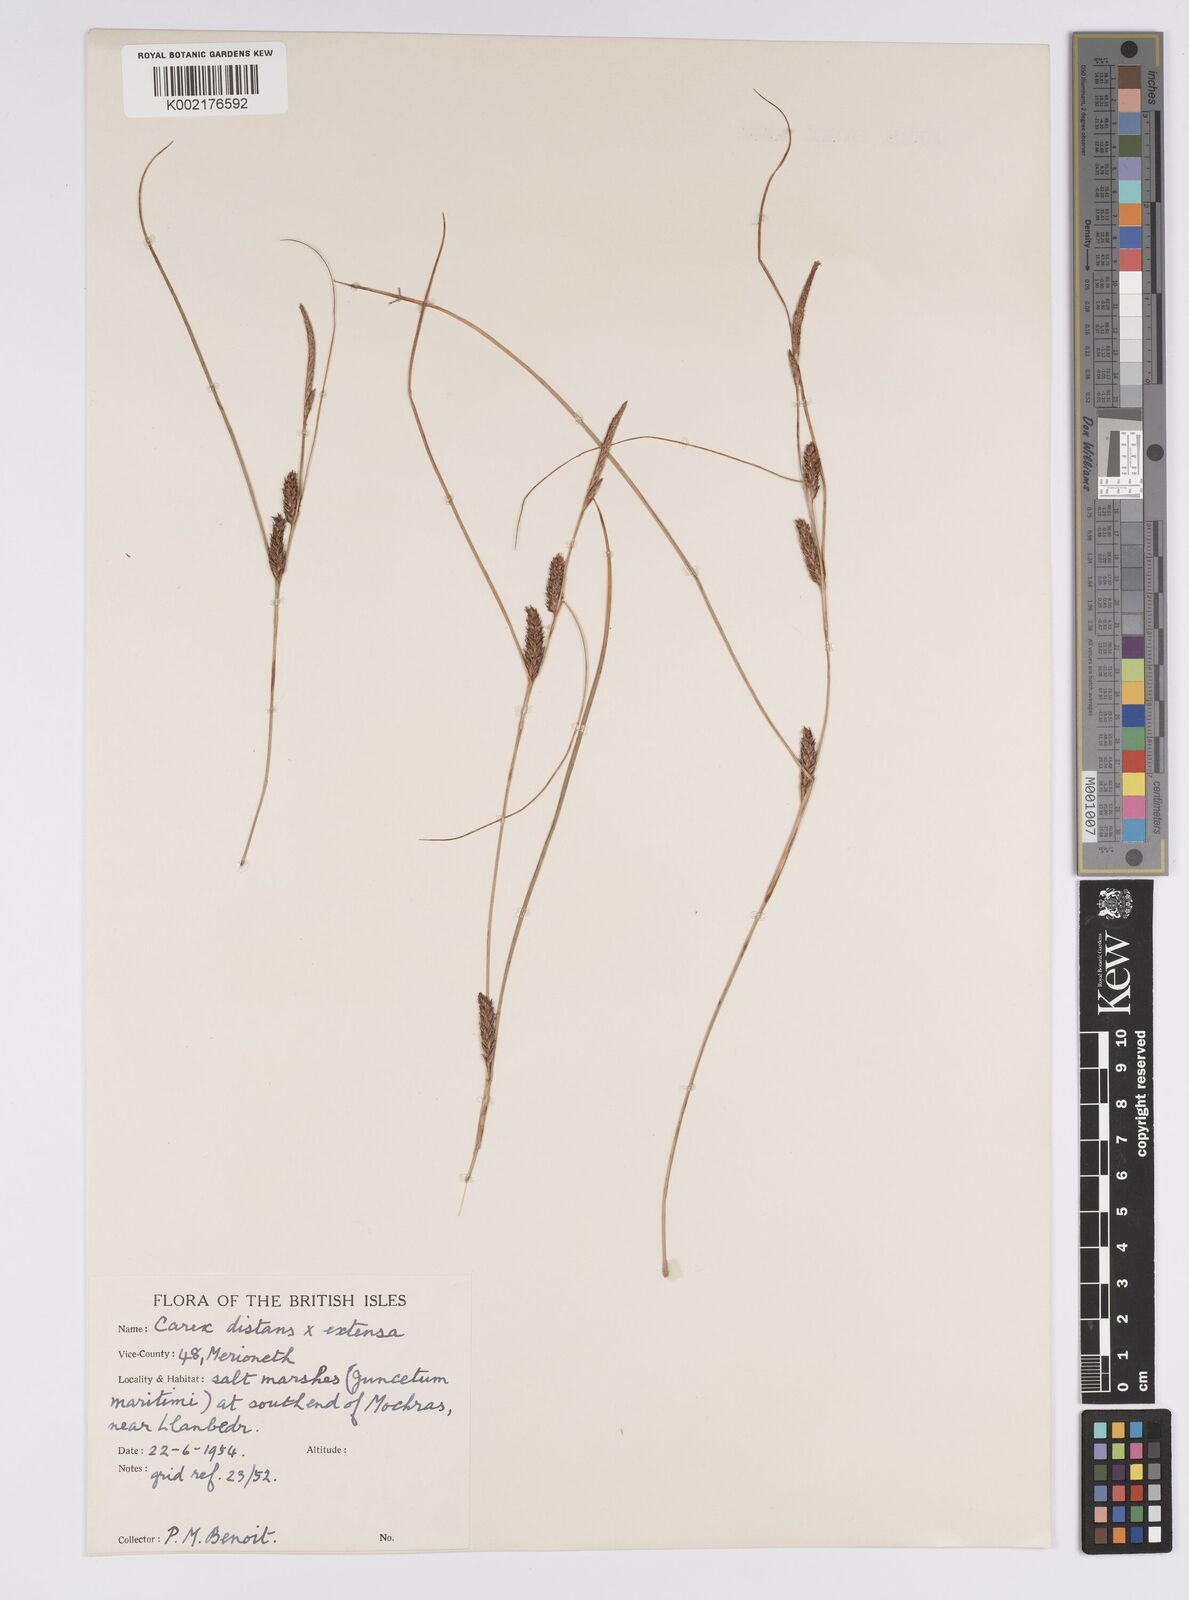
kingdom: Plantae
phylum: Tracheophyta
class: Liliopsida
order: Poales
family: Cyperaceae
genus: Carex
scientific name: Carex distans
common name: Distant sedge
